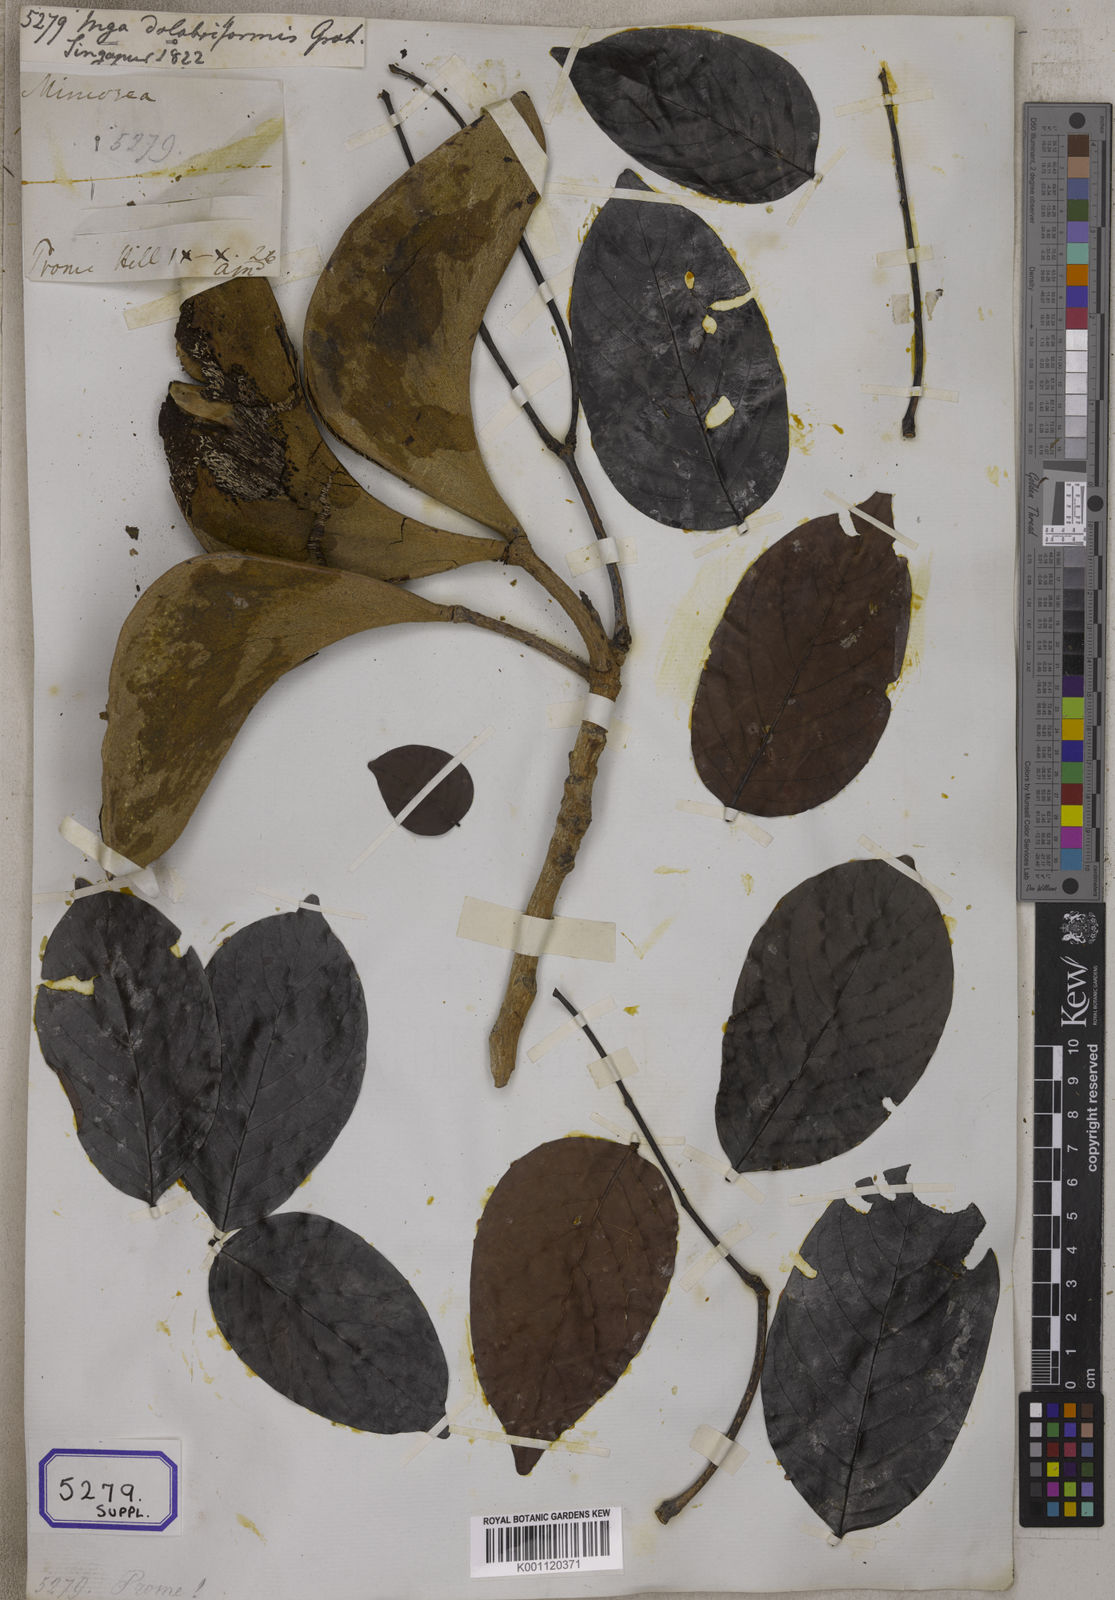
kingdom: Plantae
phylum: Tracheophyta
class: Magnoliopsida
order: Fabales
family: Fabaceae
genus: Xylia
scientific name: Xylia xylocarpa
